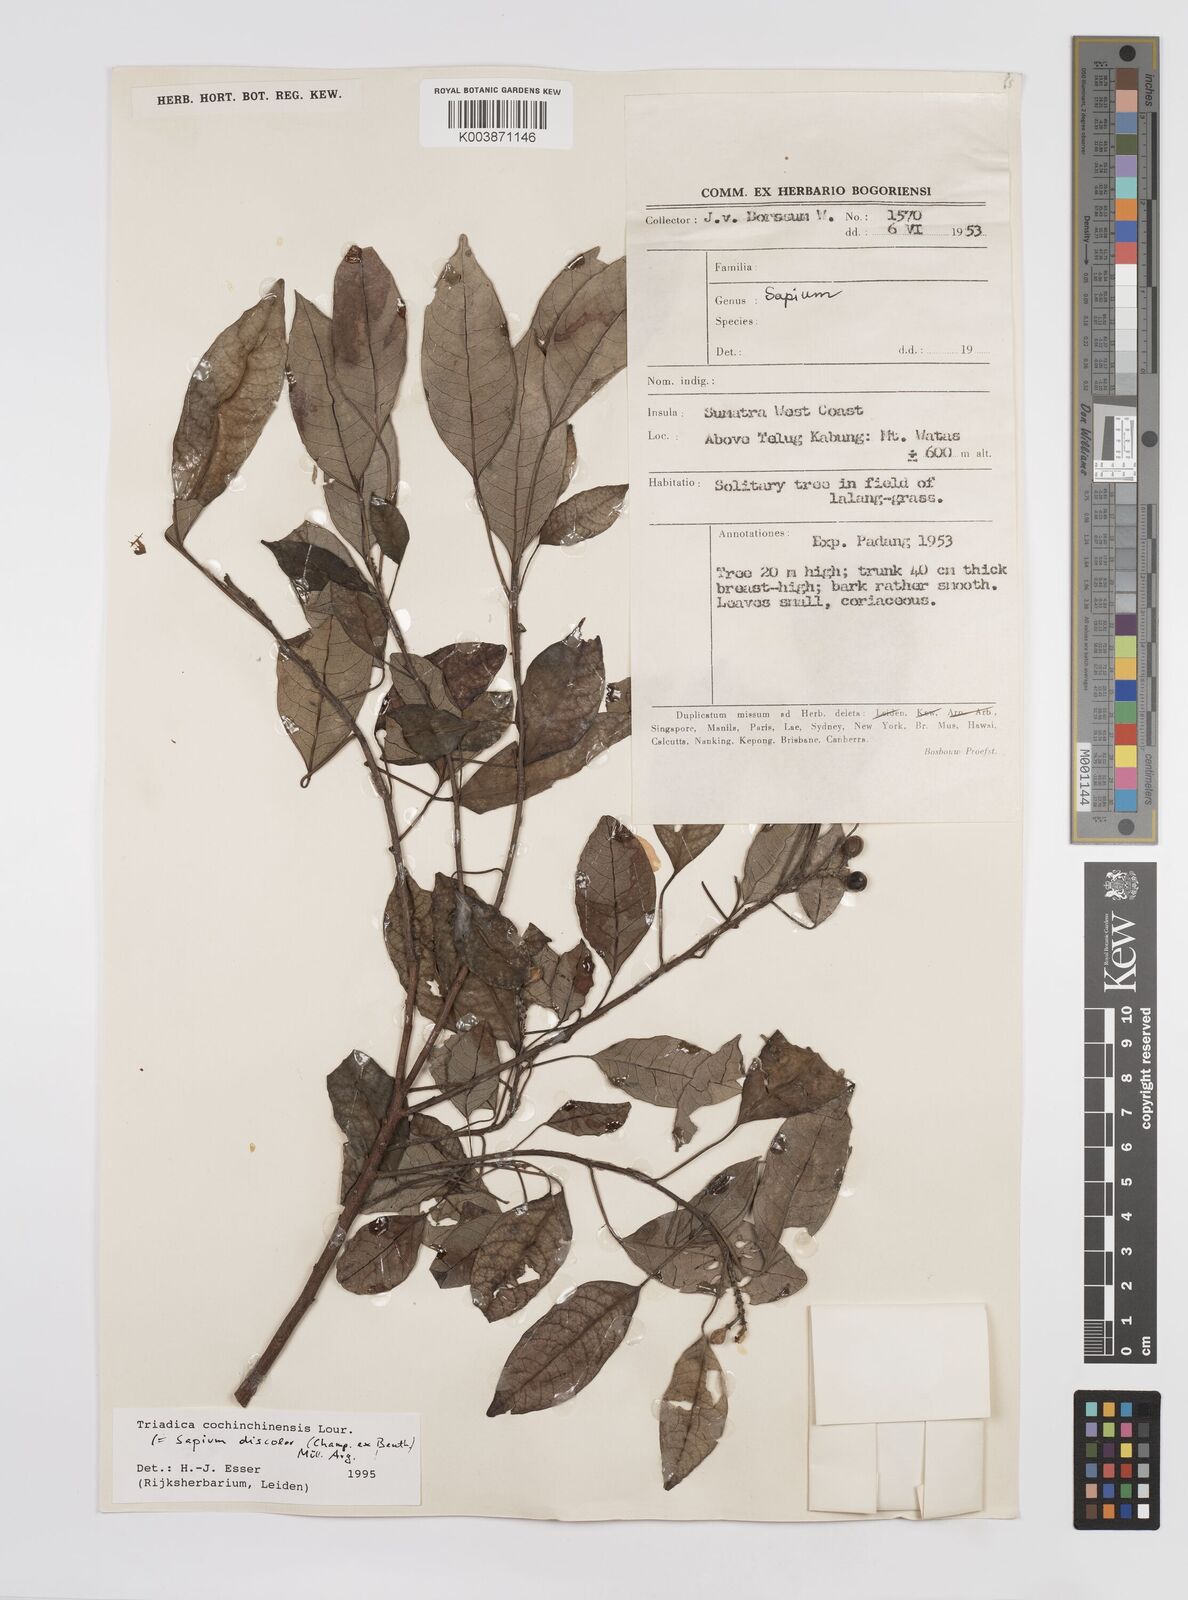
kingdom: Plantae
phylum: Tracheophyta
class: Magnoliopsida
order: Malpighiales
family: Euphorbiaceae
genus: Triadica
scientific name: Triadica cochinchinensis
